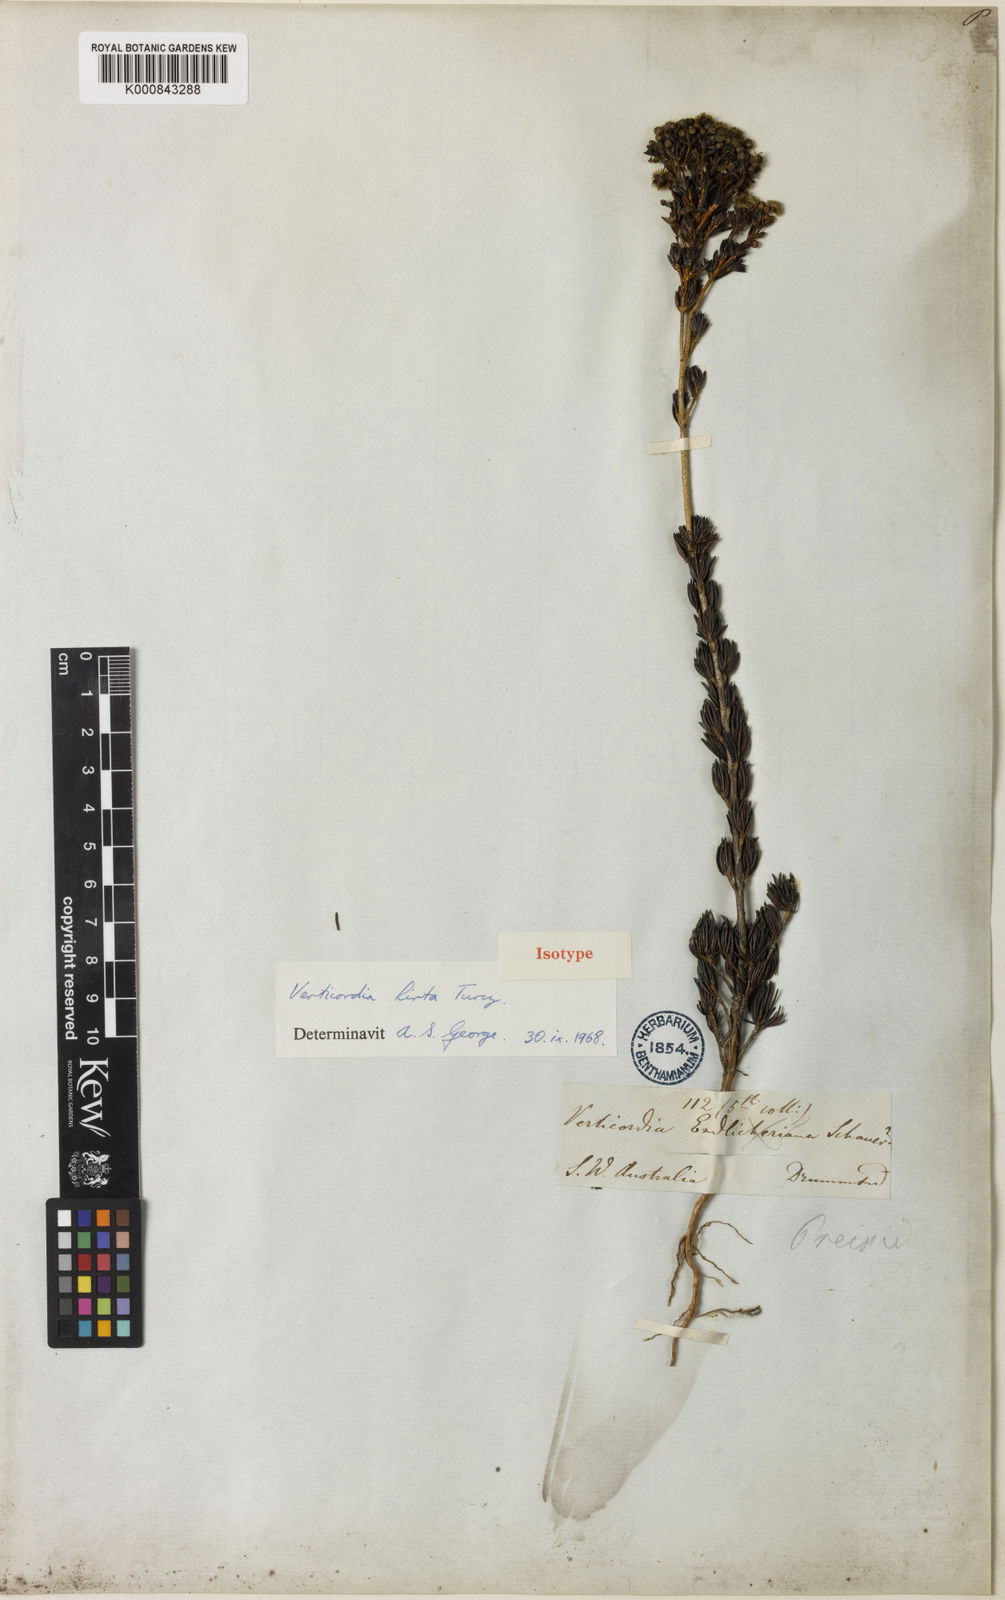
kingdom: Plantae
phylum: Tracheophyta
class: Magnoliopsida
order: Myrtales
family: Myrtaceae
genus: Verticordia
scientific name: Verticordia endlicheriana
